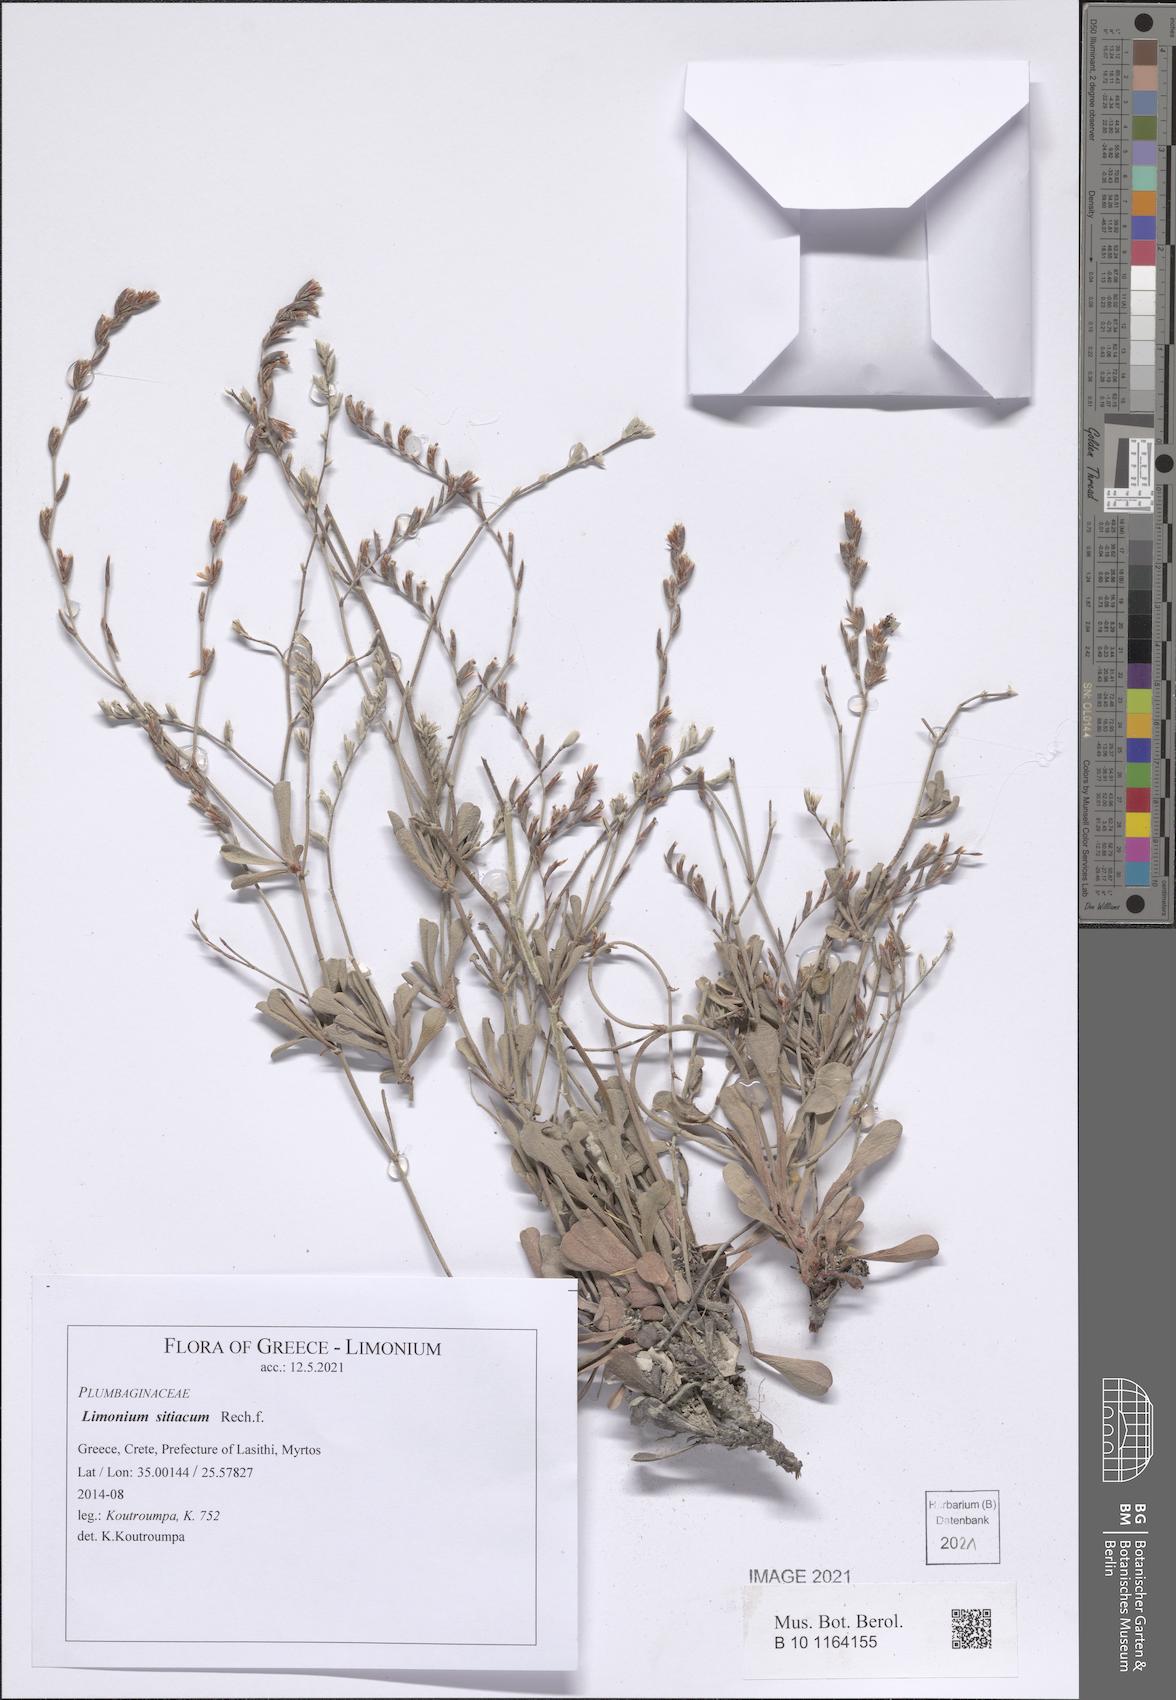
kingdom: Plantae
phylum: Tracheophyta
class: Magnoliopsida
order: Caryophyllales
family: Plumbaginaceae
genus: Limonium
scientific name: Limonium sitiacum
